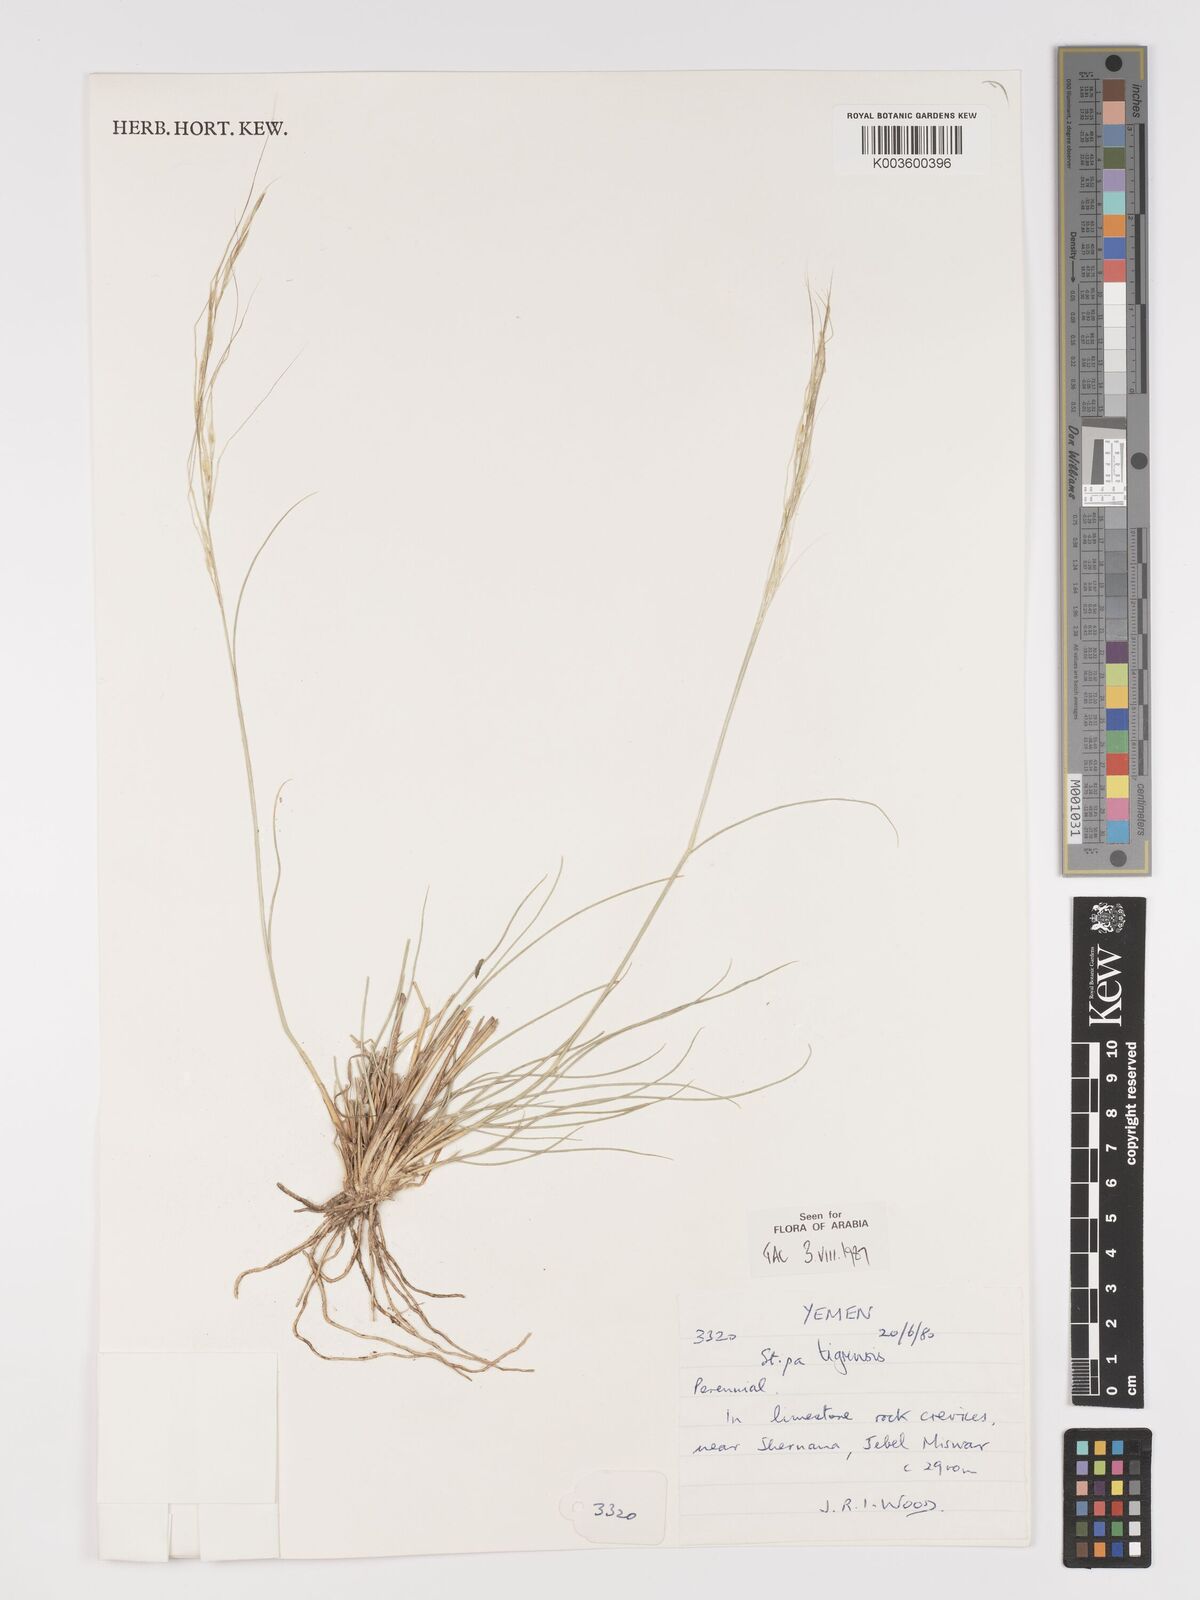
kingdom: Plantae
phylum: Tracheophyta
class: Liliopsida
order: Poales
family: Poaceae
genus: Stipa
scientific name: Stipa tigrensis
